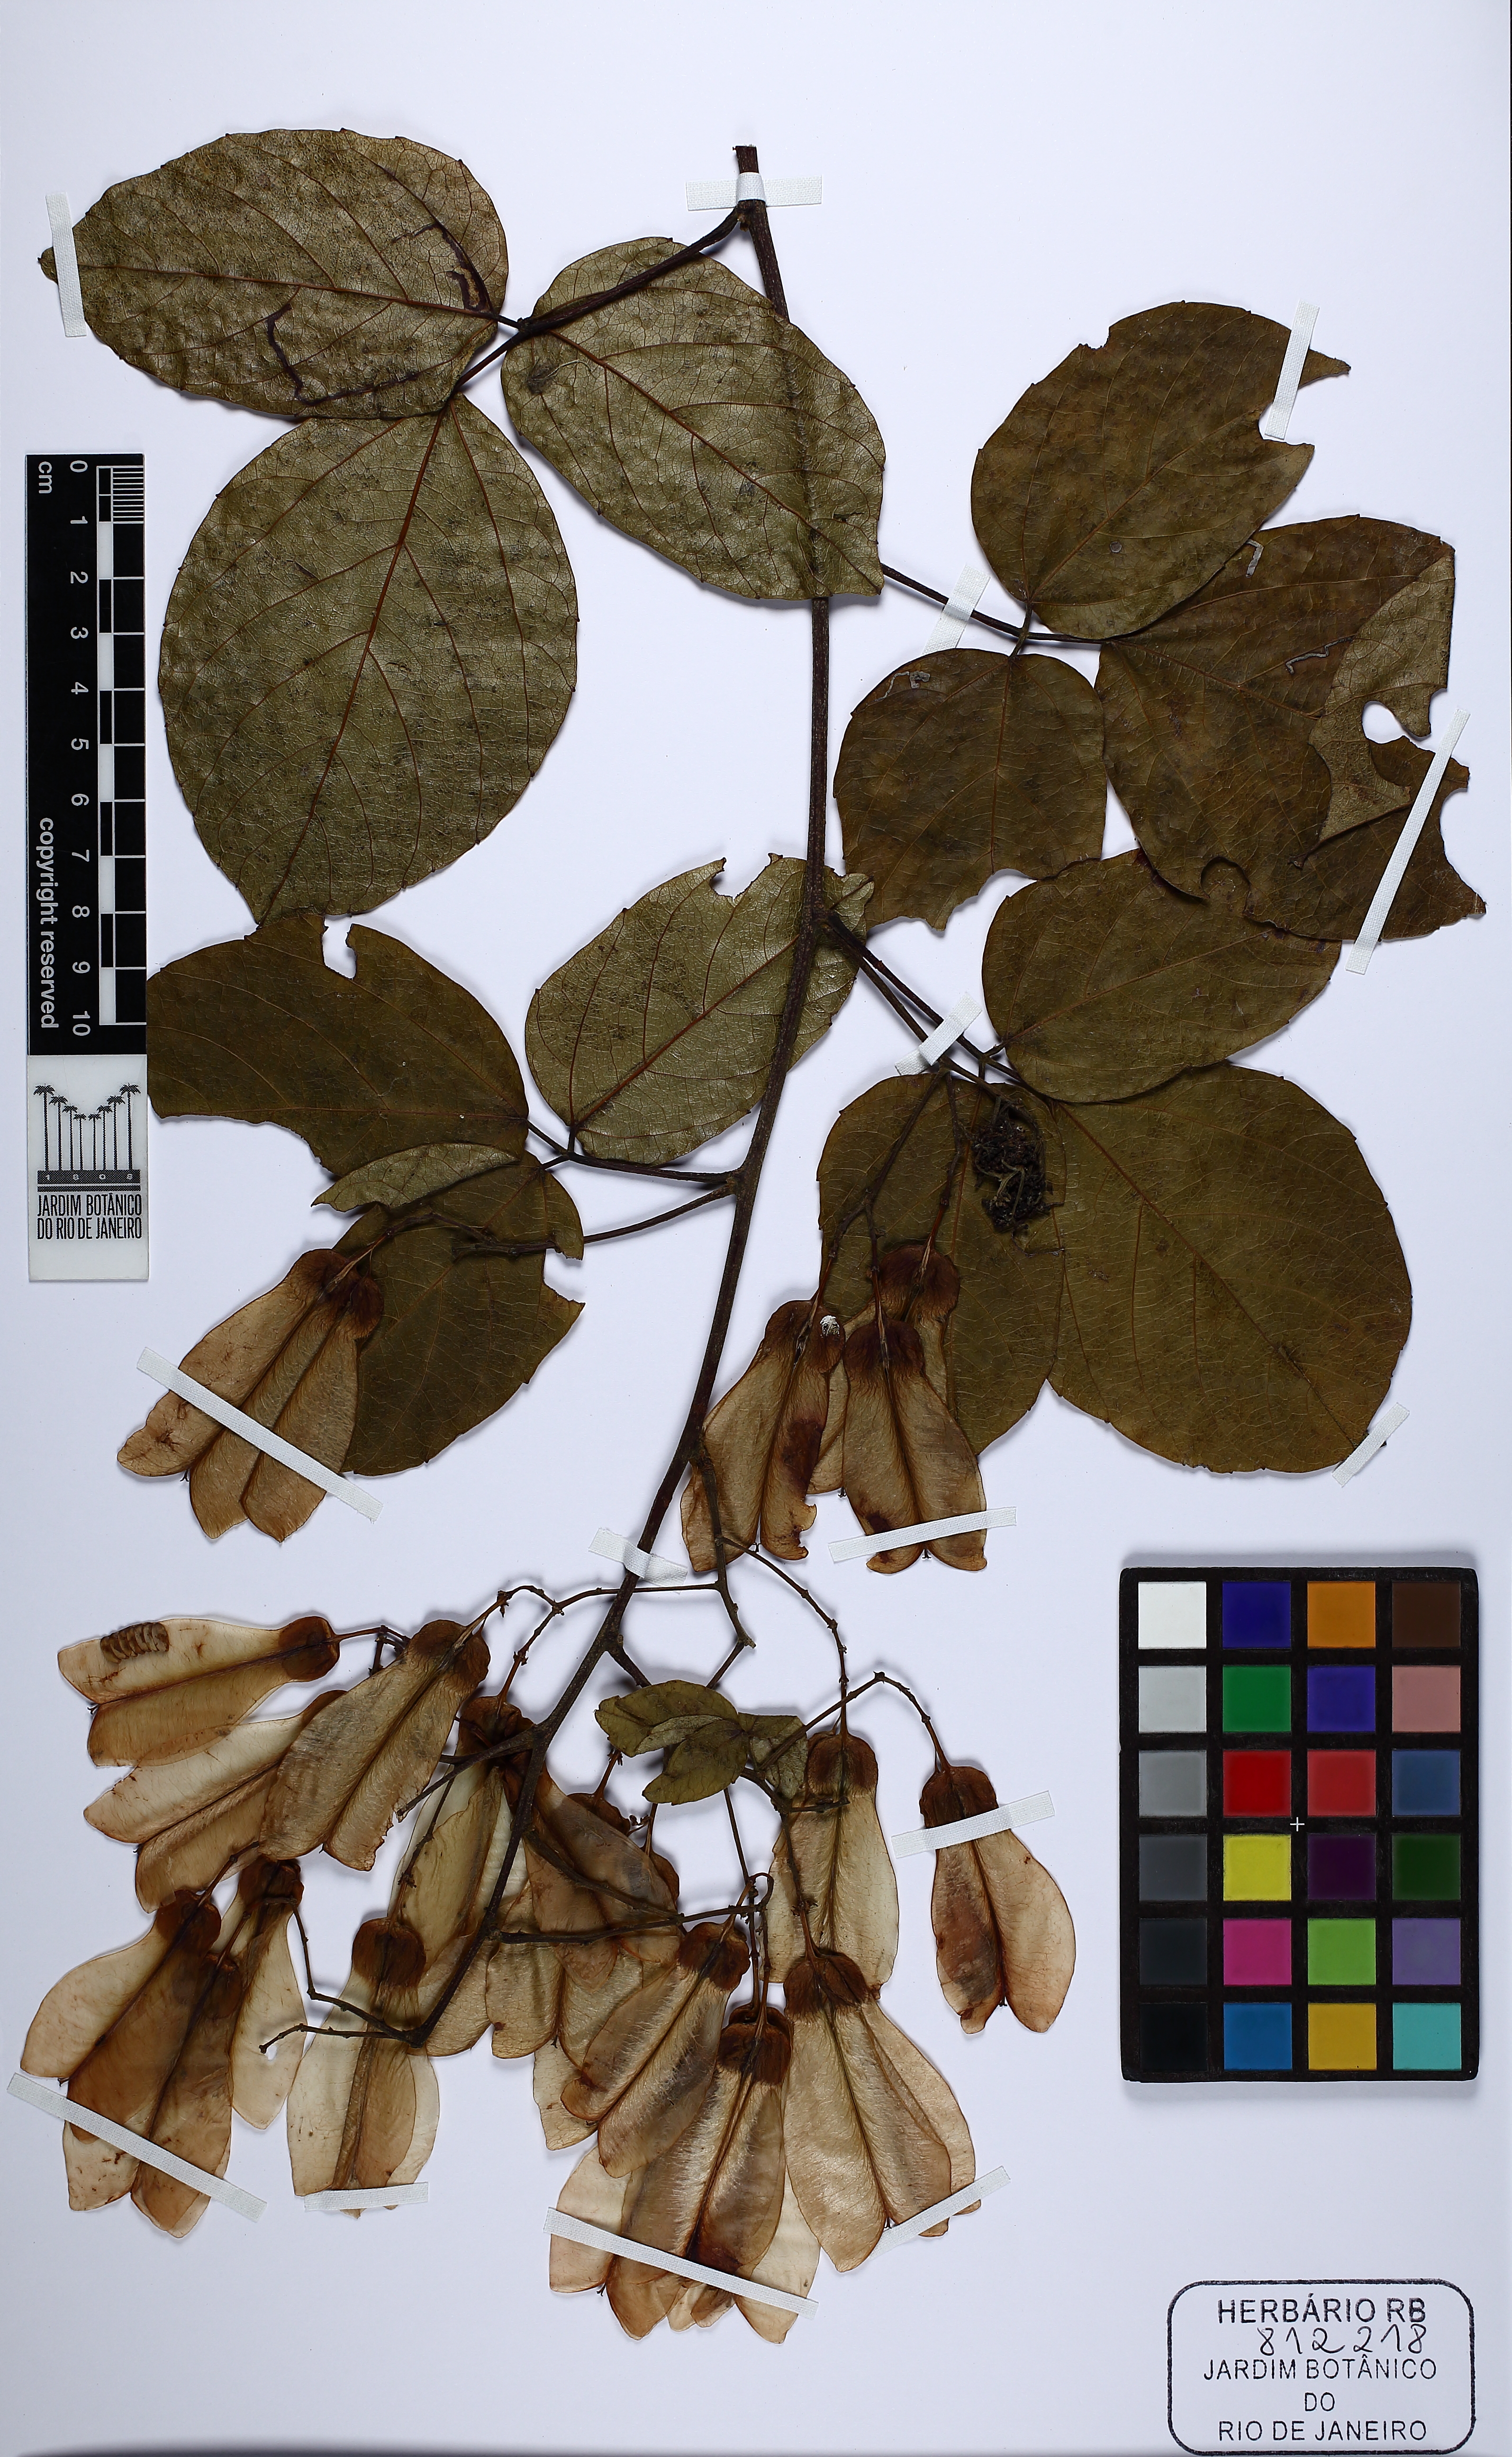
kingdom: Plantae
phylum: Tracheophyta
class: Magnoliopsida
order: Sapindales
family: Sapindaceae
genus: Thinouia
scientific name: Thinouia scandens
